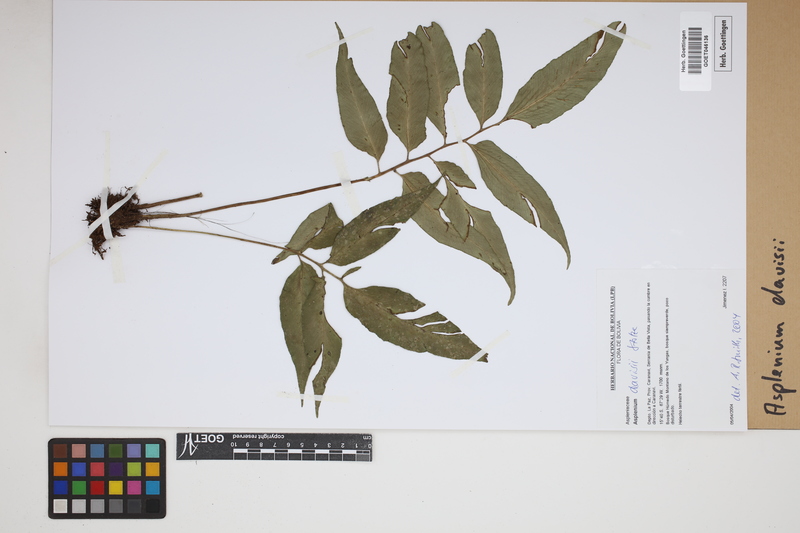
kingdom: Plantae
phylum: Tracheophyta
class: Polypodiopsida
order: Polypodiales
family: Aspleniaceae
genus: Asplenium
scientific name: Asplenium davisii
